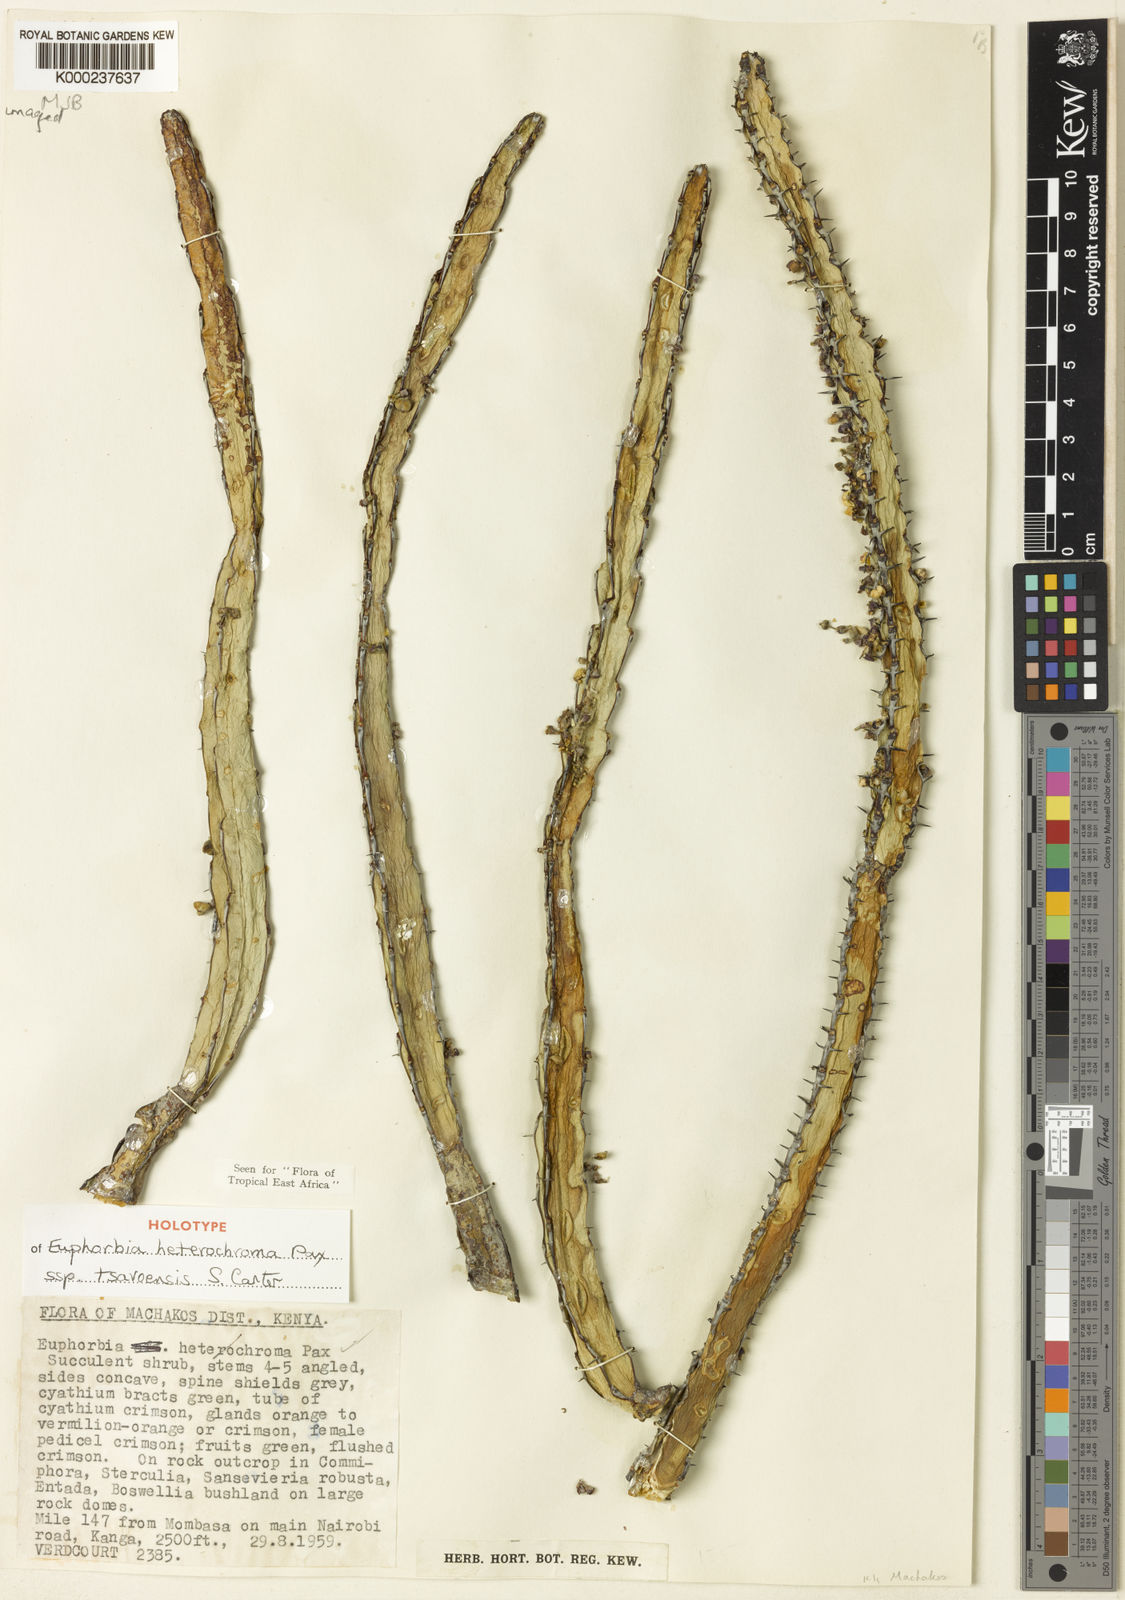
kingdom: Plantae
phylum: Tracheophyta
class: Magnoliopsida
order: Malpighiales
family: Euphorbiaceae
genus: Euphorbia
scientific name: Euphorbia heterochroma
